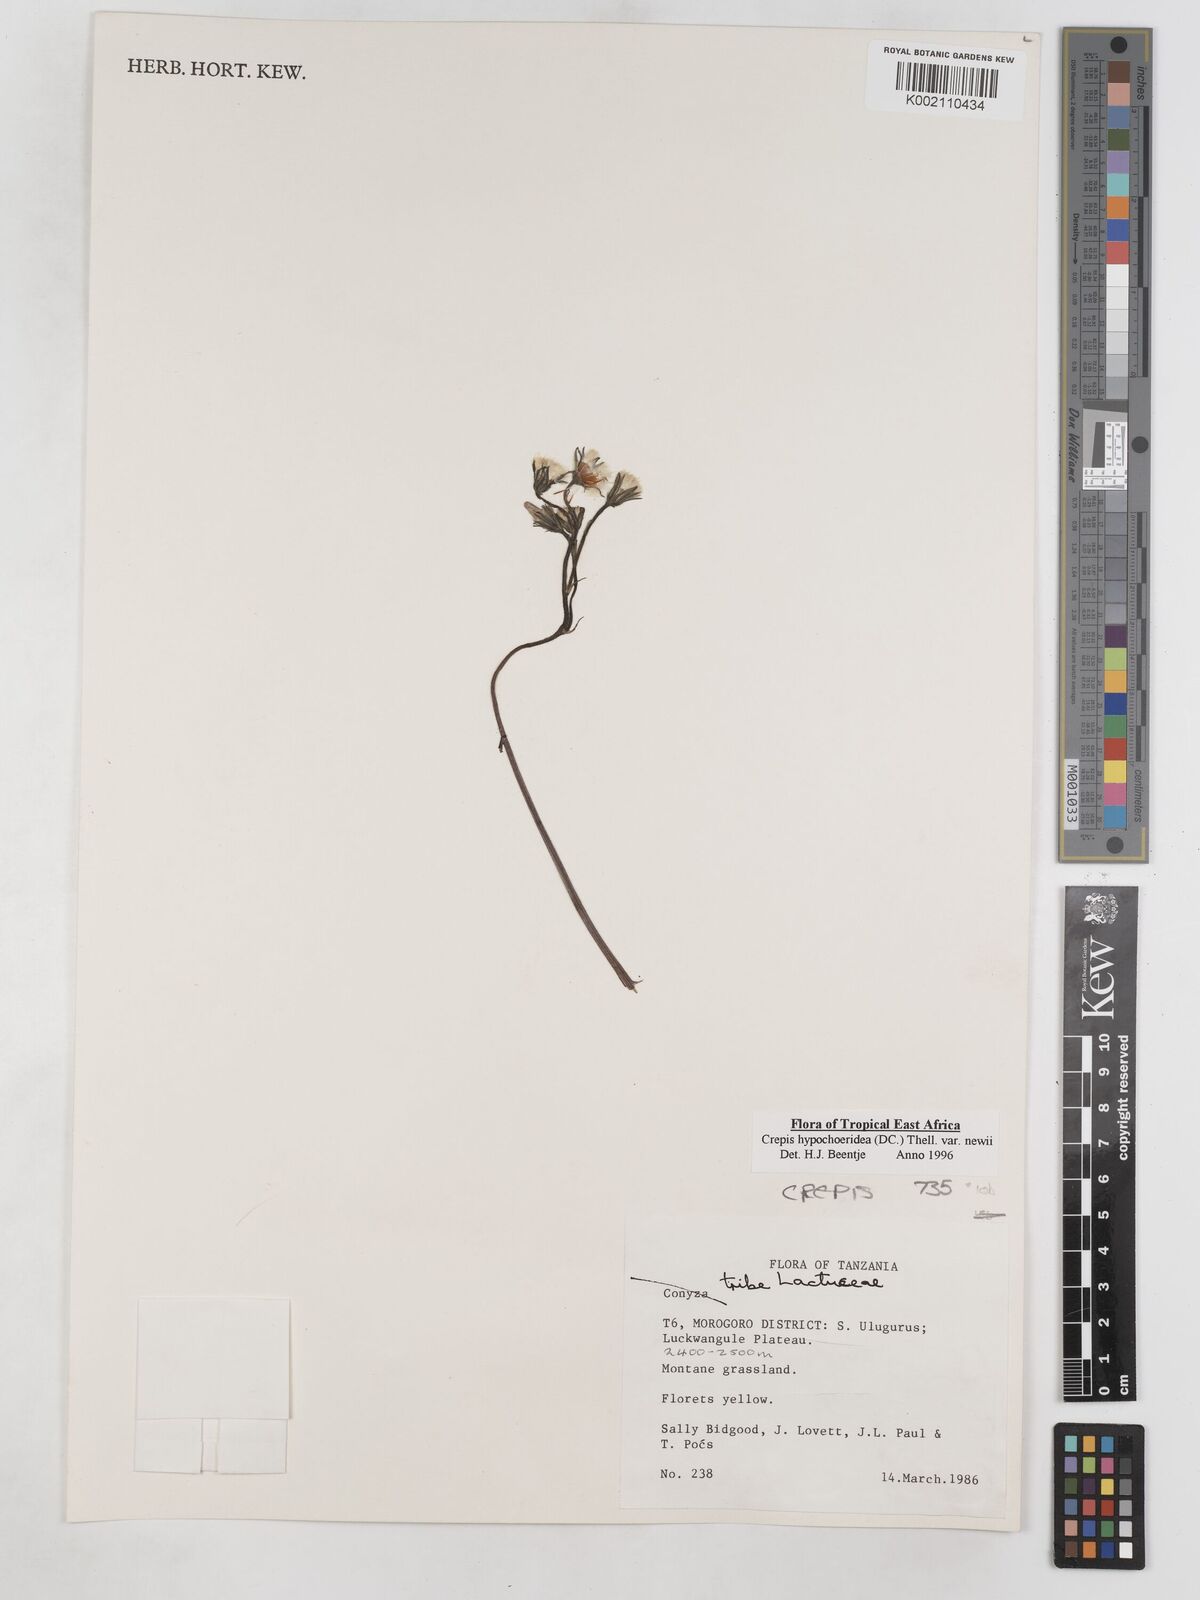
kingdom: Plantae
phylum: Tracheophyta
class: Magnoliopsida
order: Asterales
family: Asteraceae
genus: Crepis
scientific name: Crepis hypochoeridea
